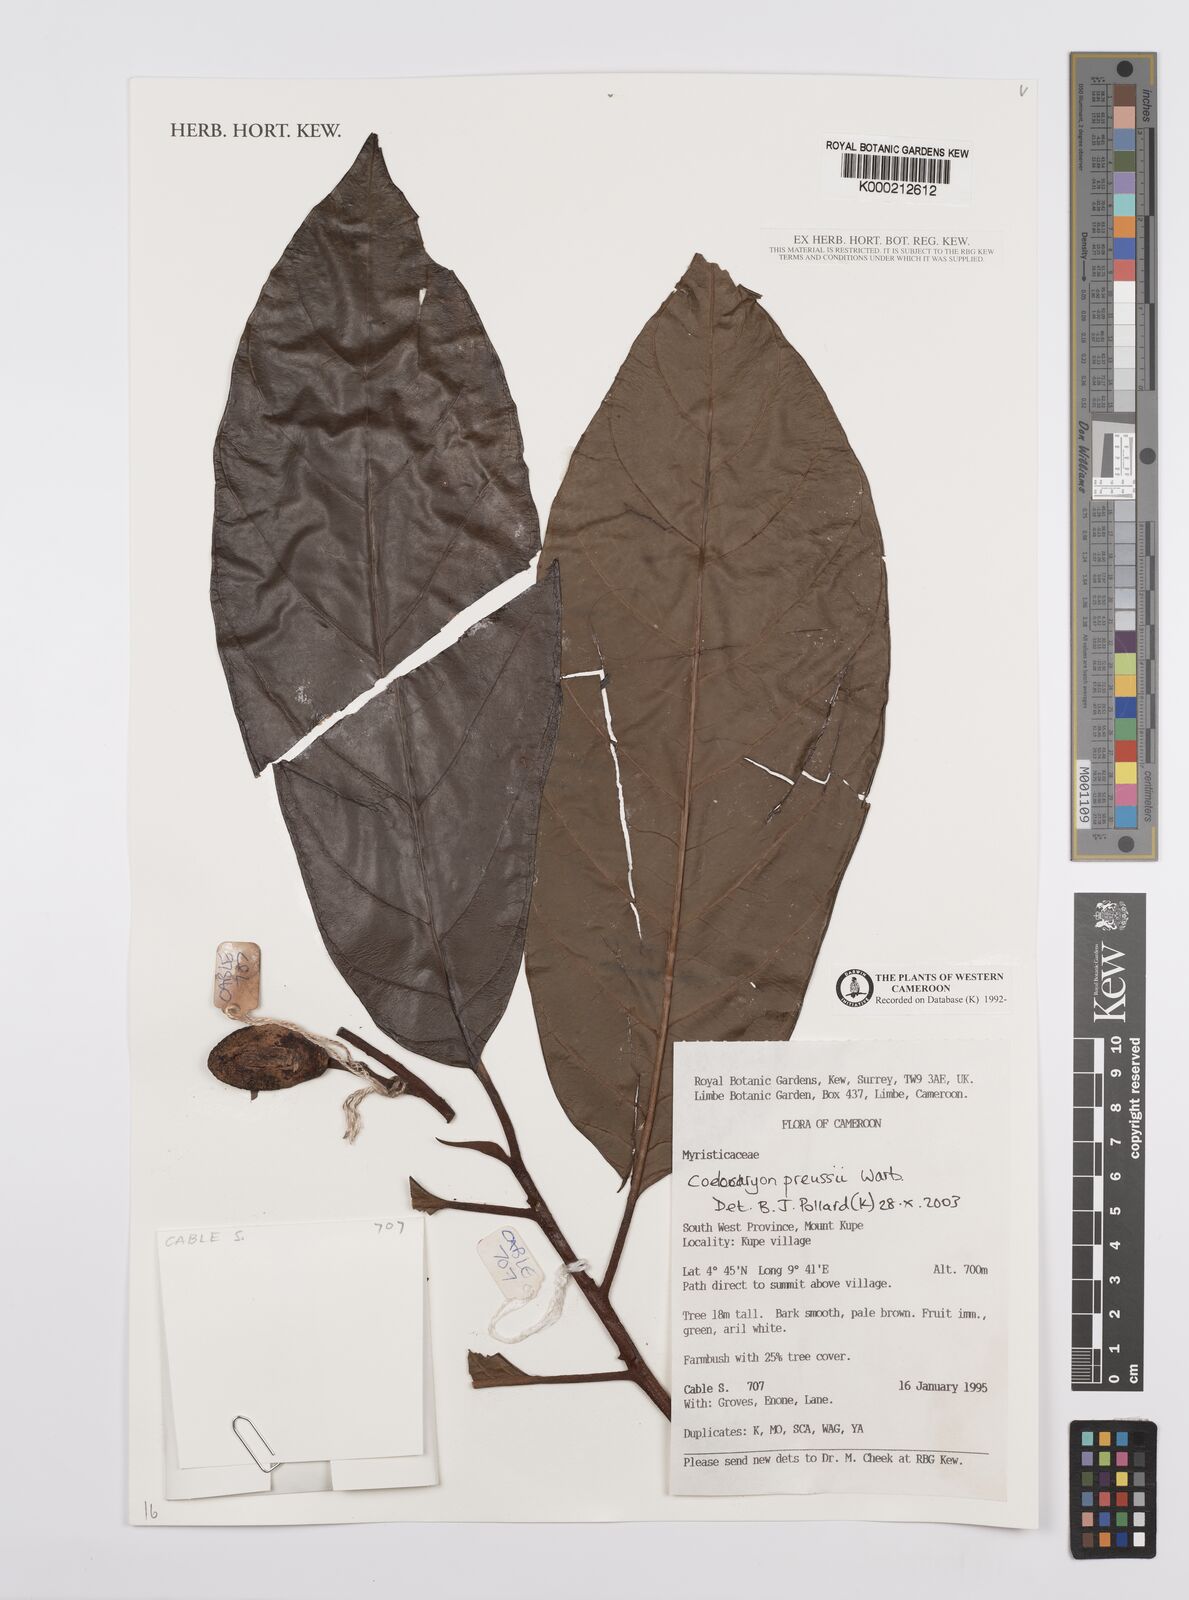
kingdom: Plantae
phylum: Tracheophyta
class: Magnoliopsida
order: Magnoliales
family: Myristicaceae
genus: Coelocaryon
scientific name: Coelocaryon preussii
